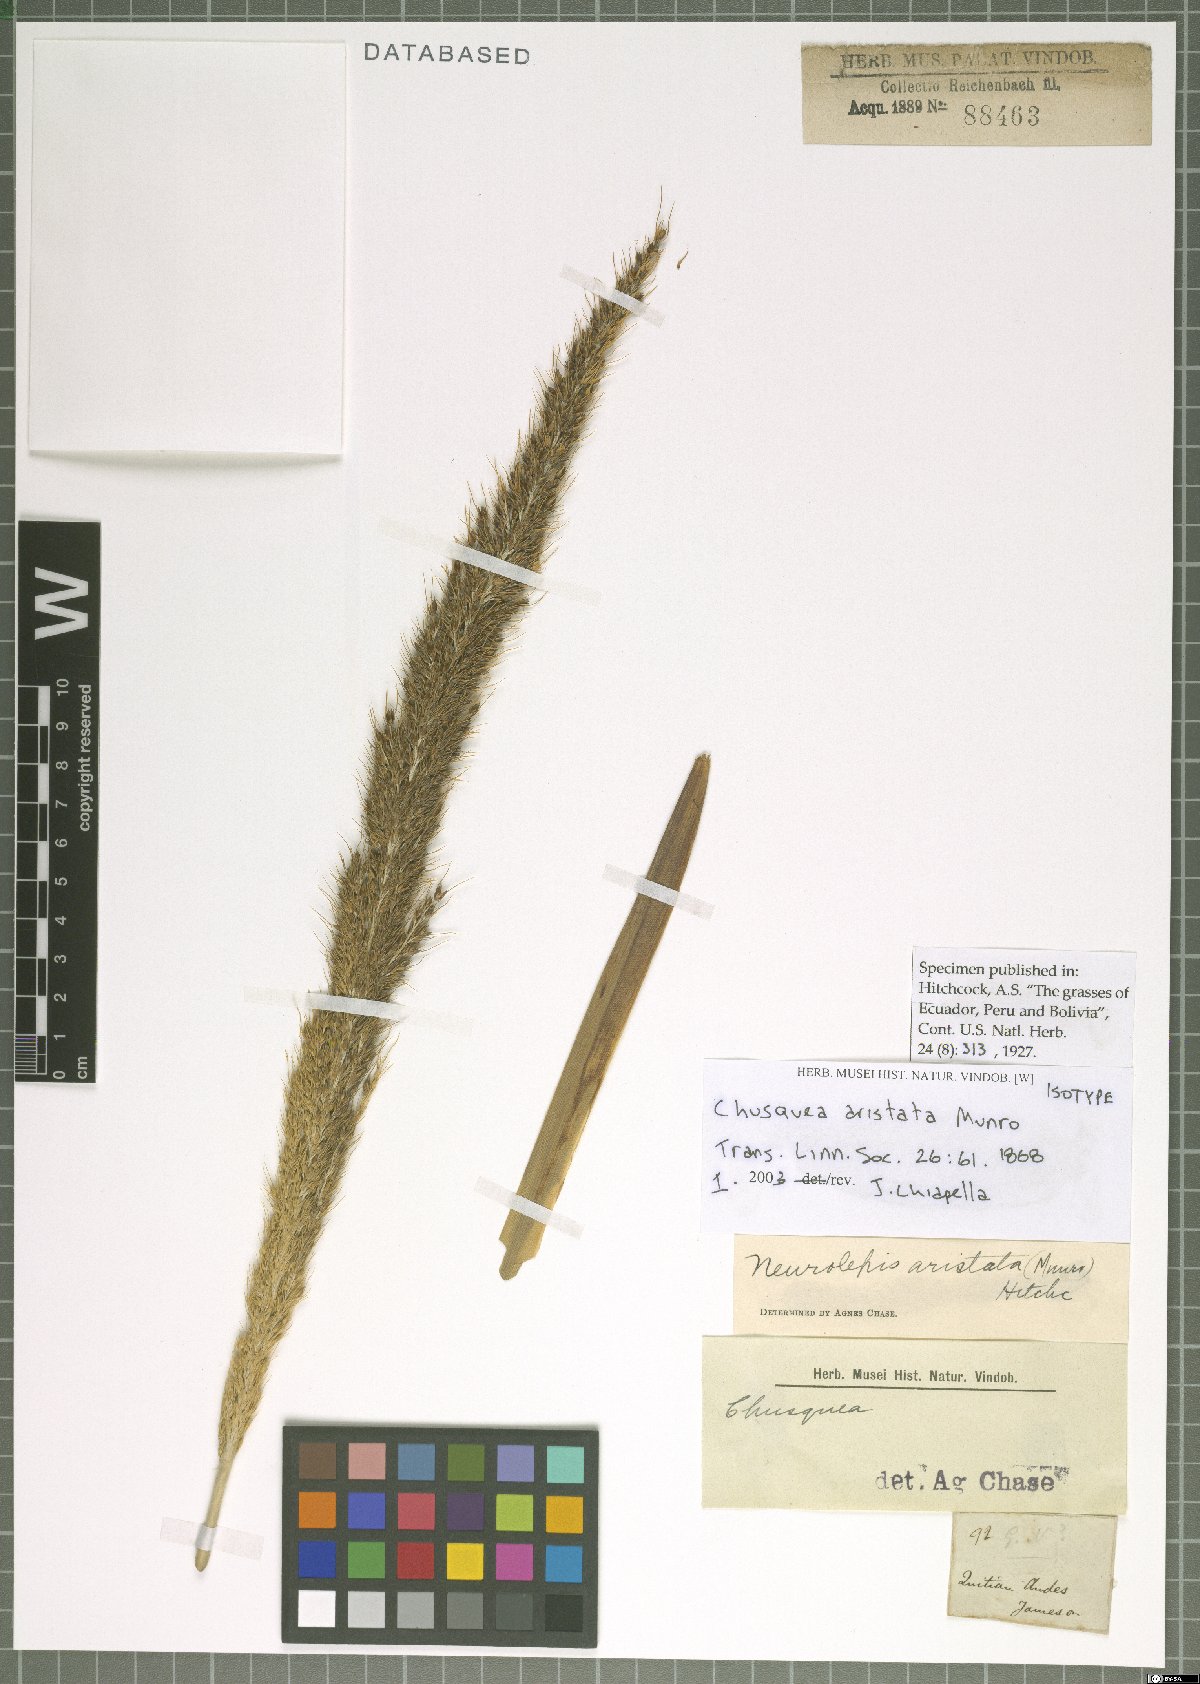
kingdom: Plantae
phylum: Tracheophyta
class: Liliopsida
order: Poales
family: Poaceae
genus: Chusquea
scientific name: Chusquea acuminatissima
